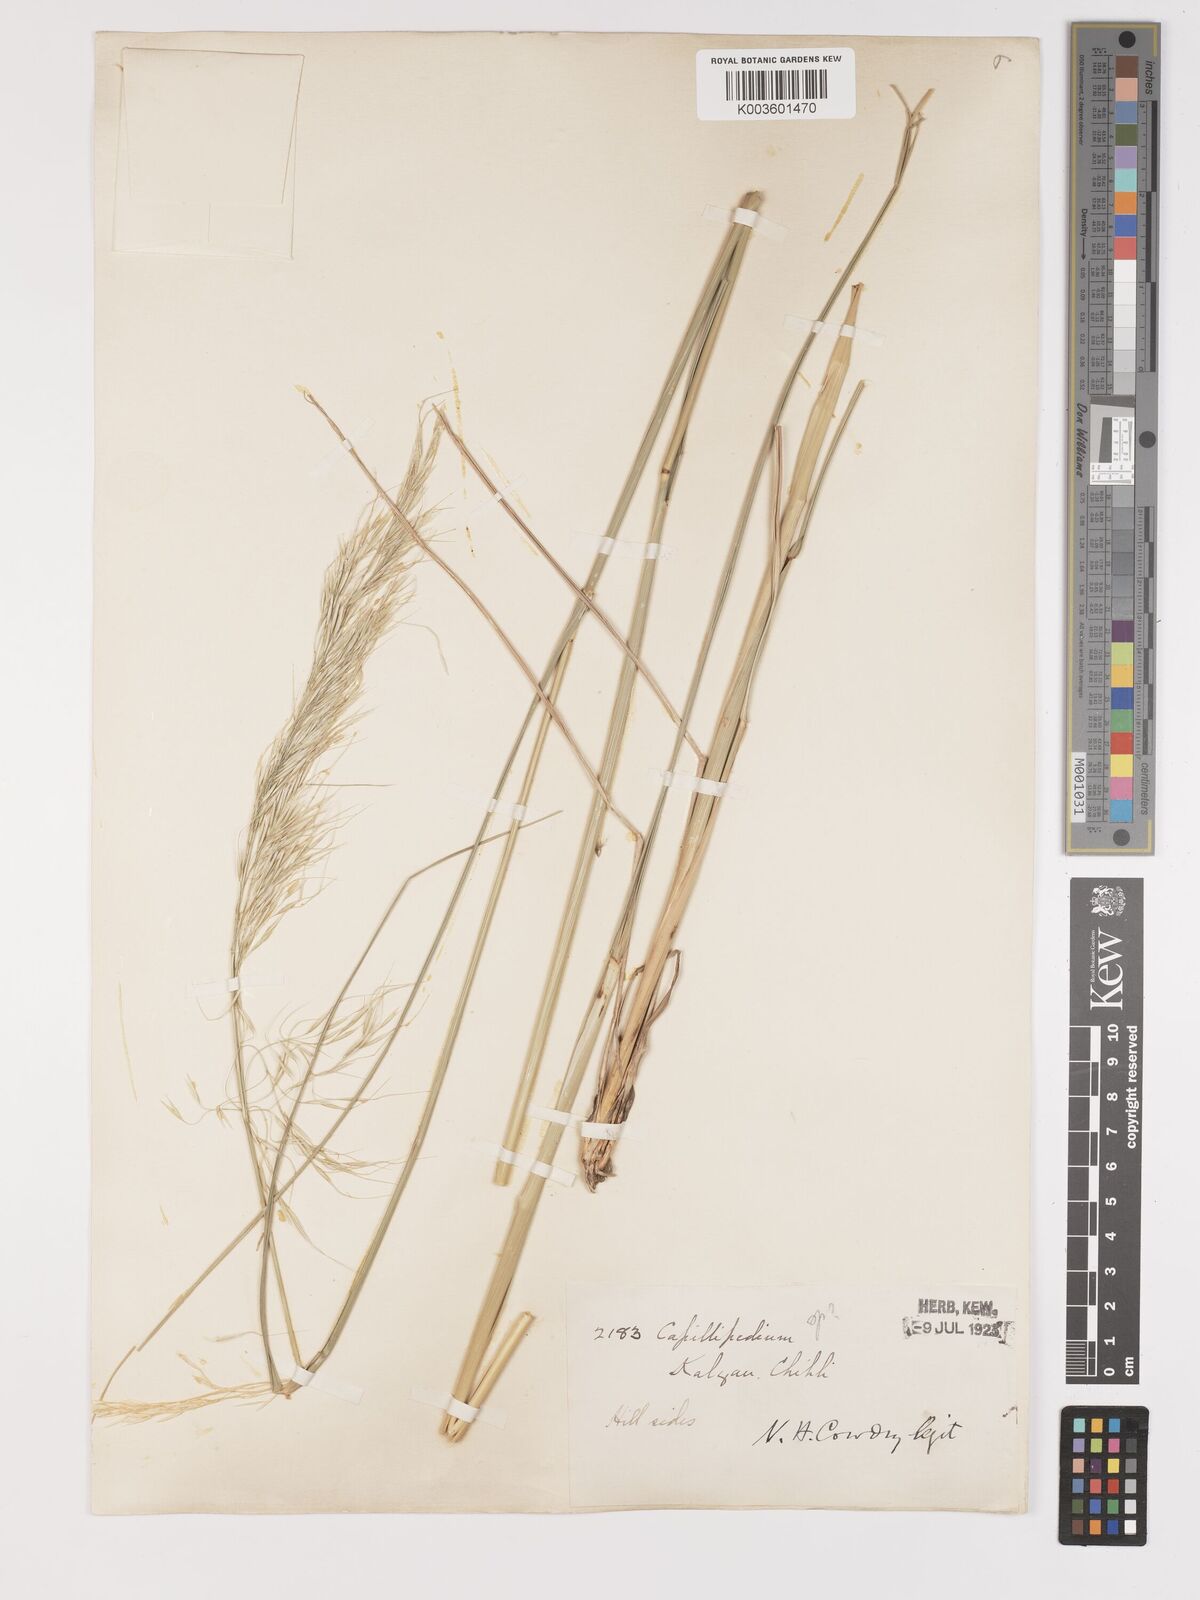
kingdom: Plantae
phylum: Tracheophyta
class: Liliopsida
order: Poales
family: Poaceae
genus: Achnatherum
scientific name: Achnatherum pekinense
